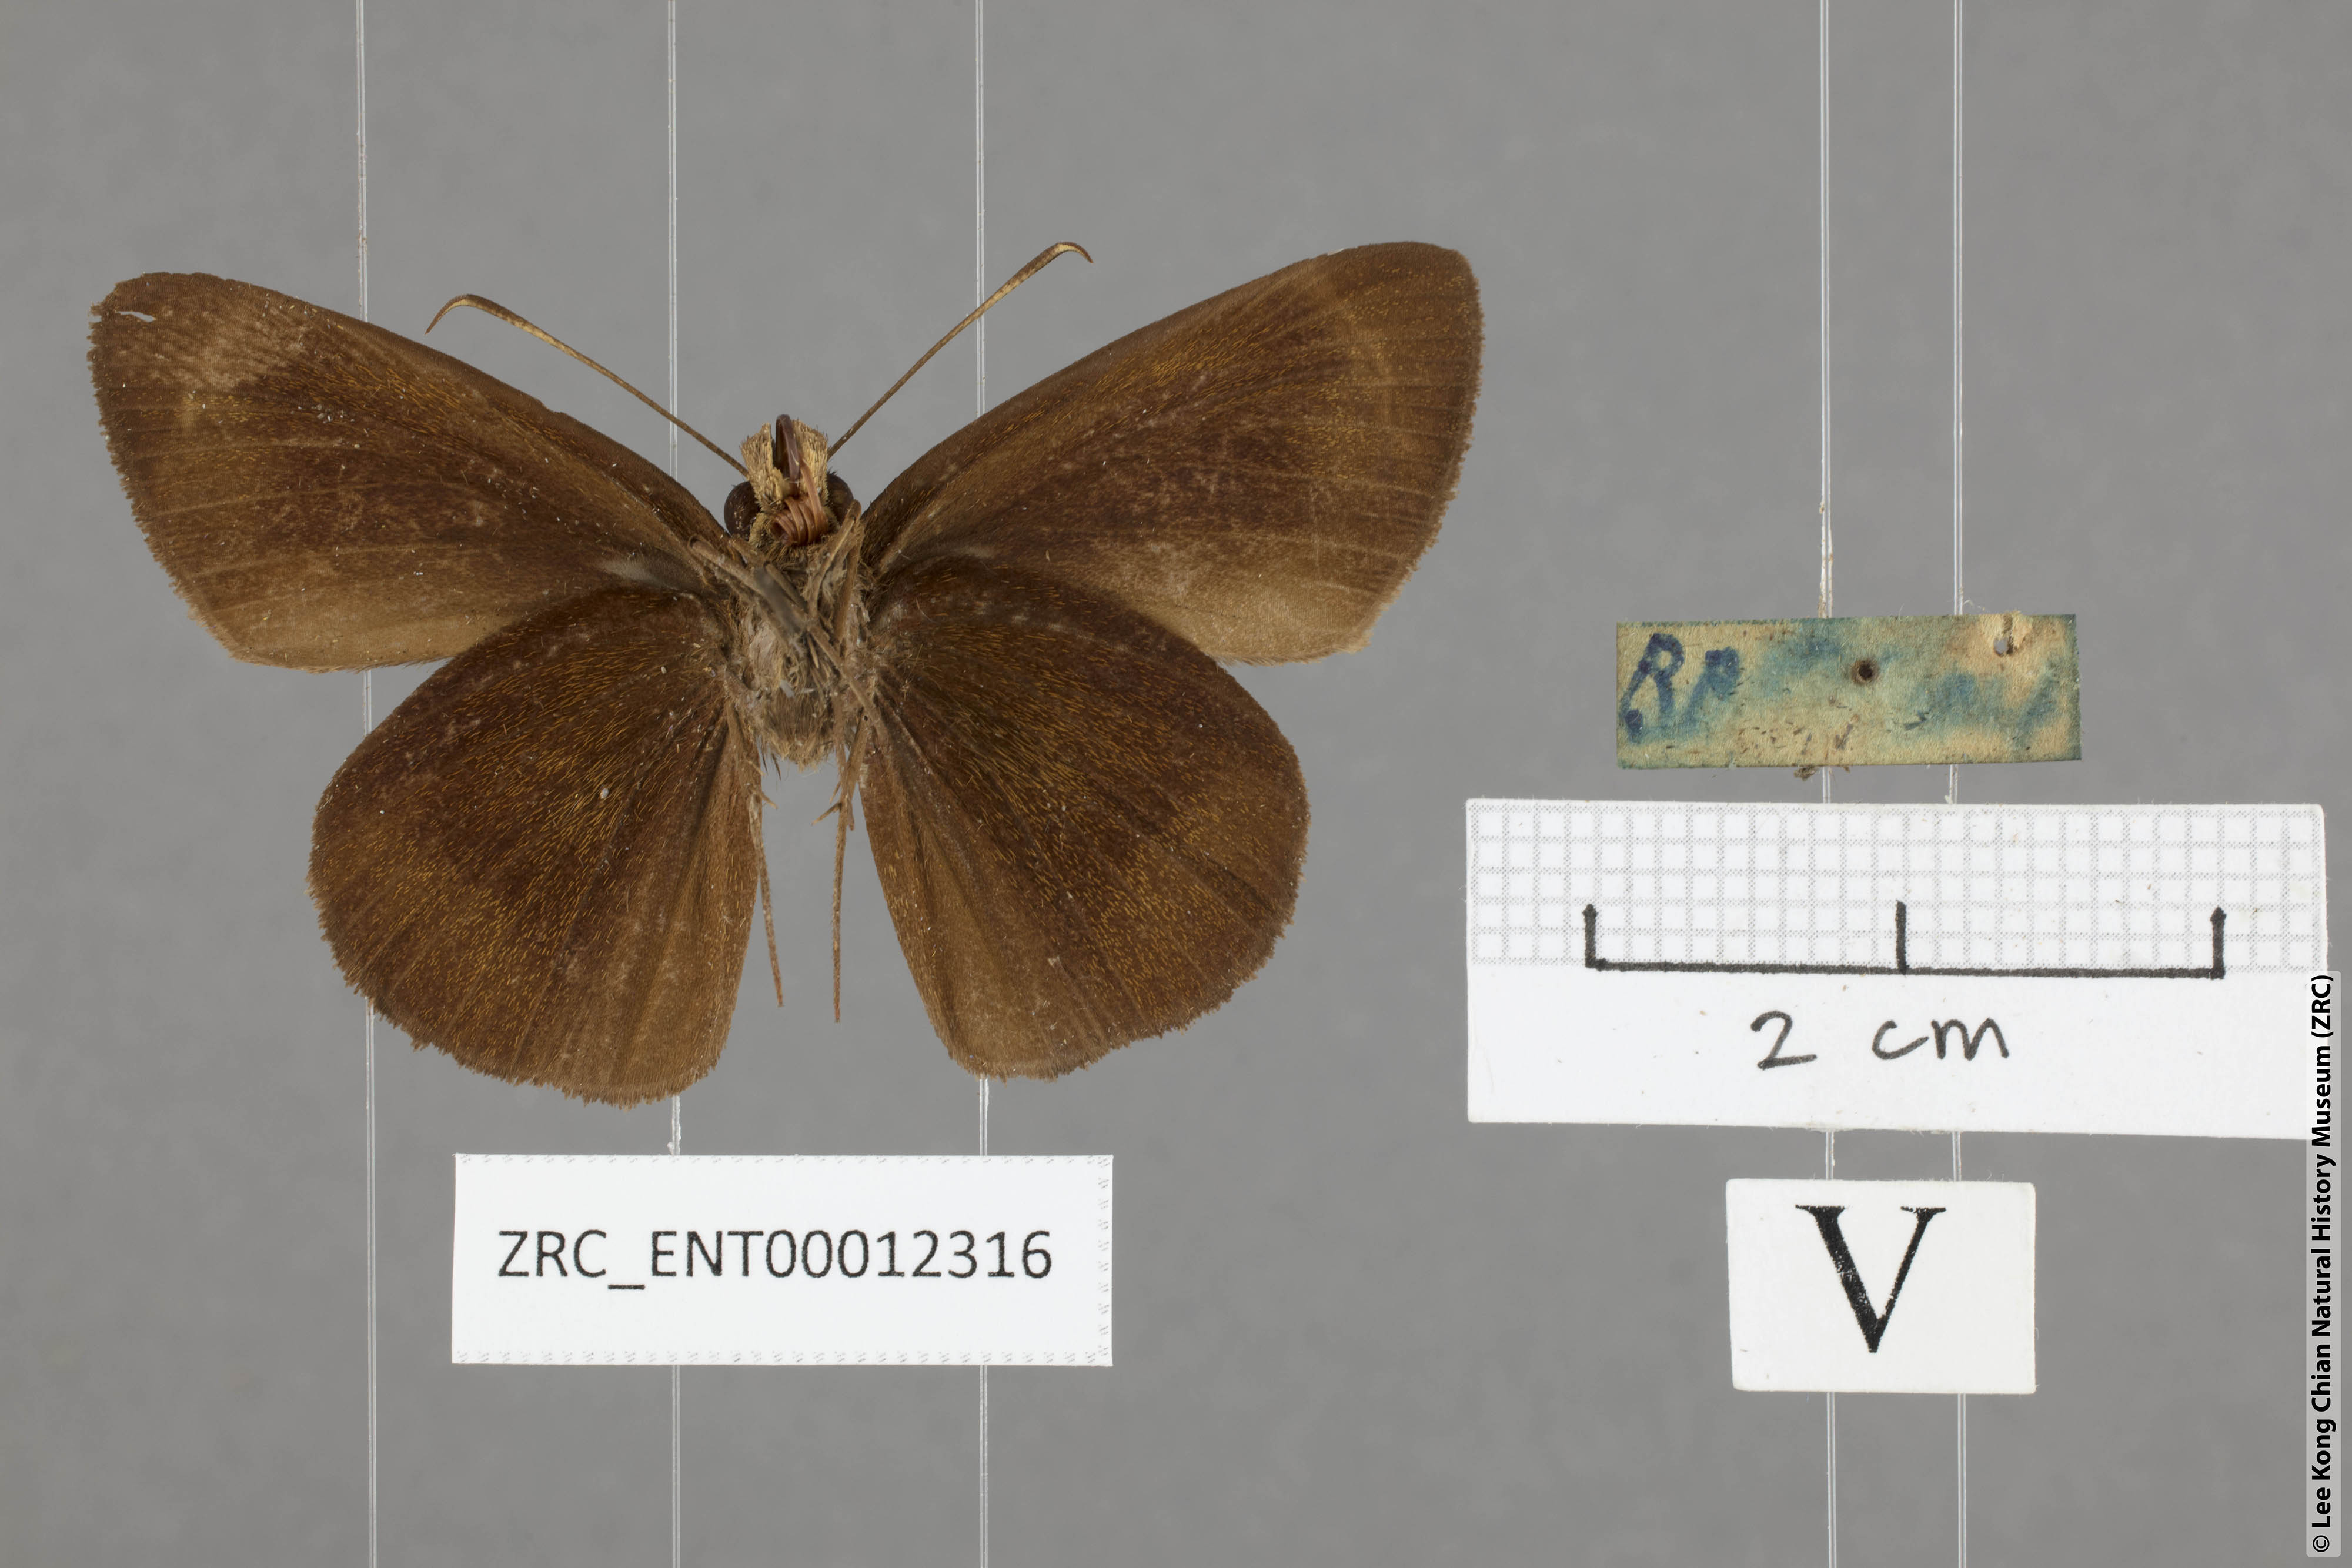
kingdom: Animalia
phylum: Arthropoda
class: Insecta
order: Lepidoptera
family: Hesperiidae
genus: Ancistroides
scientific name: Ancistroides nigrita
